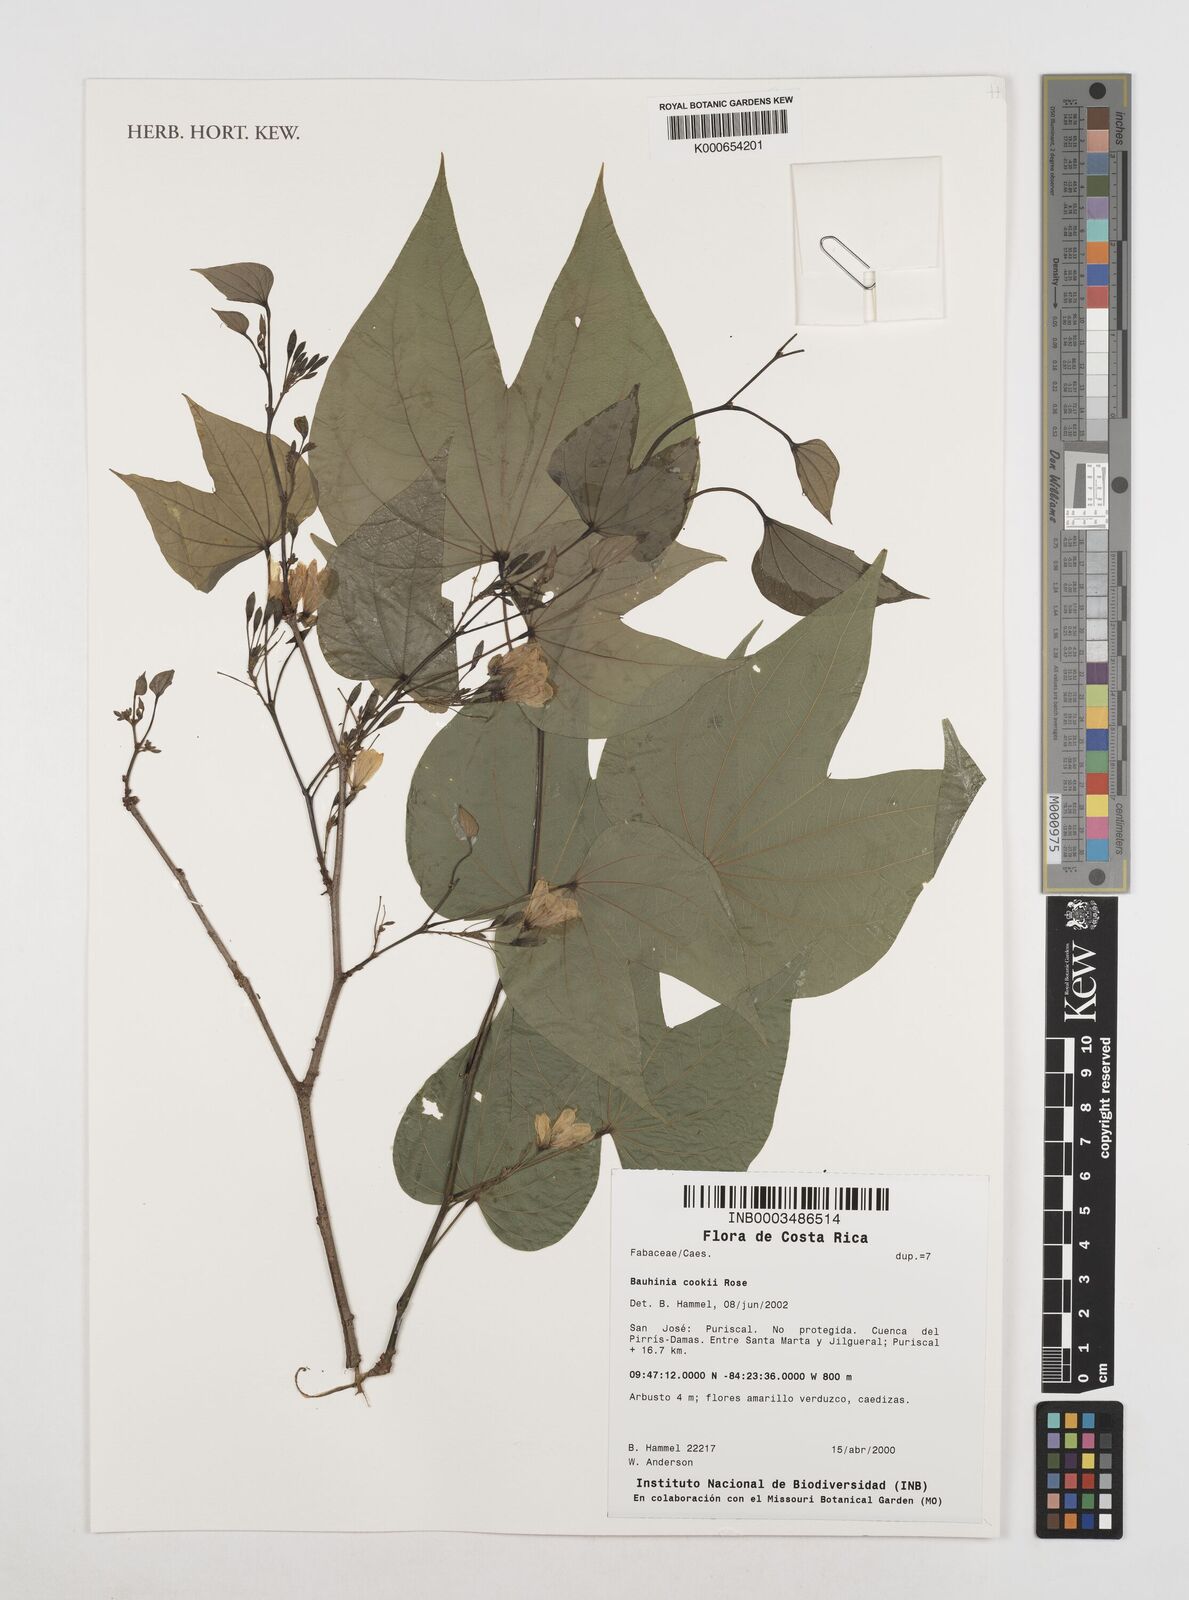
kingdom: Plantae
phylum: Tracheophyta
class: Magnoliopsida
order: Fabales
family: Fabaceae
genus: Bauhinia
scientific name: Bauhinia cookii
